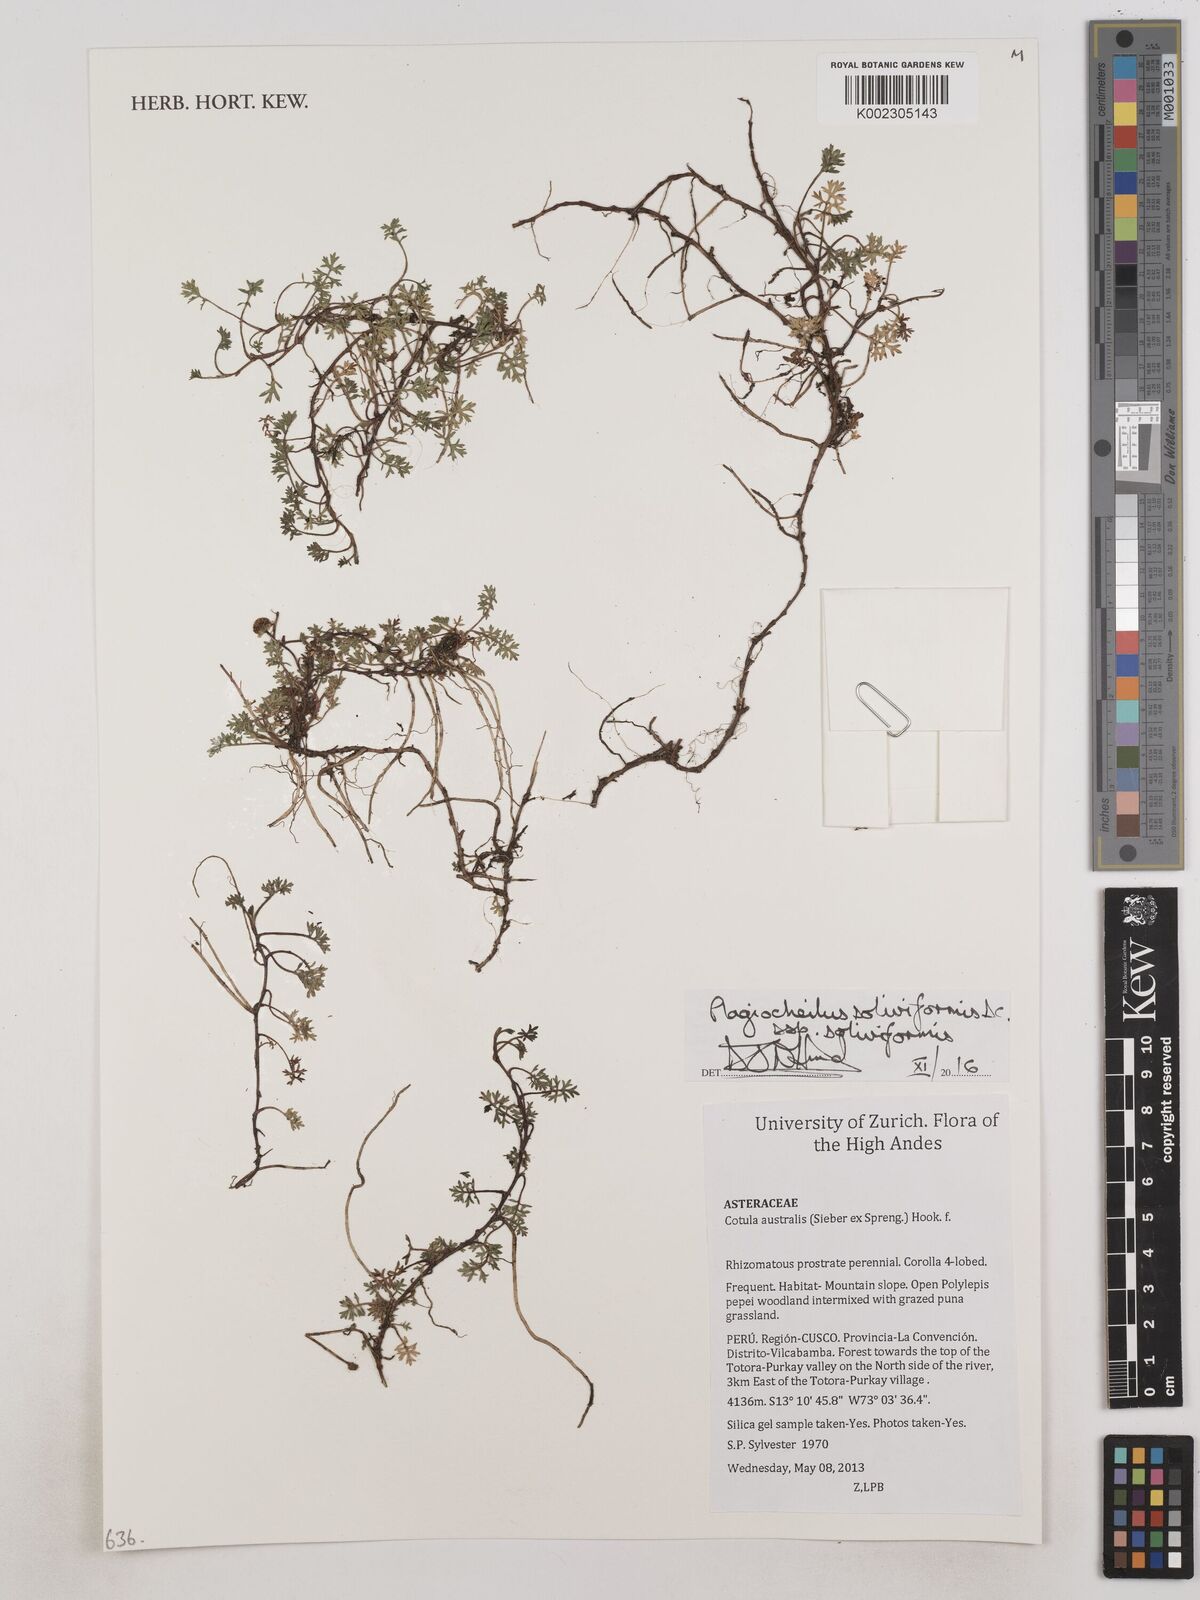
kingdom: Plantae
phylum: Tracheophyta
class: Magnoliopsida
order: Asterales
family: Asteraceae
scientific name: Asteraceae
